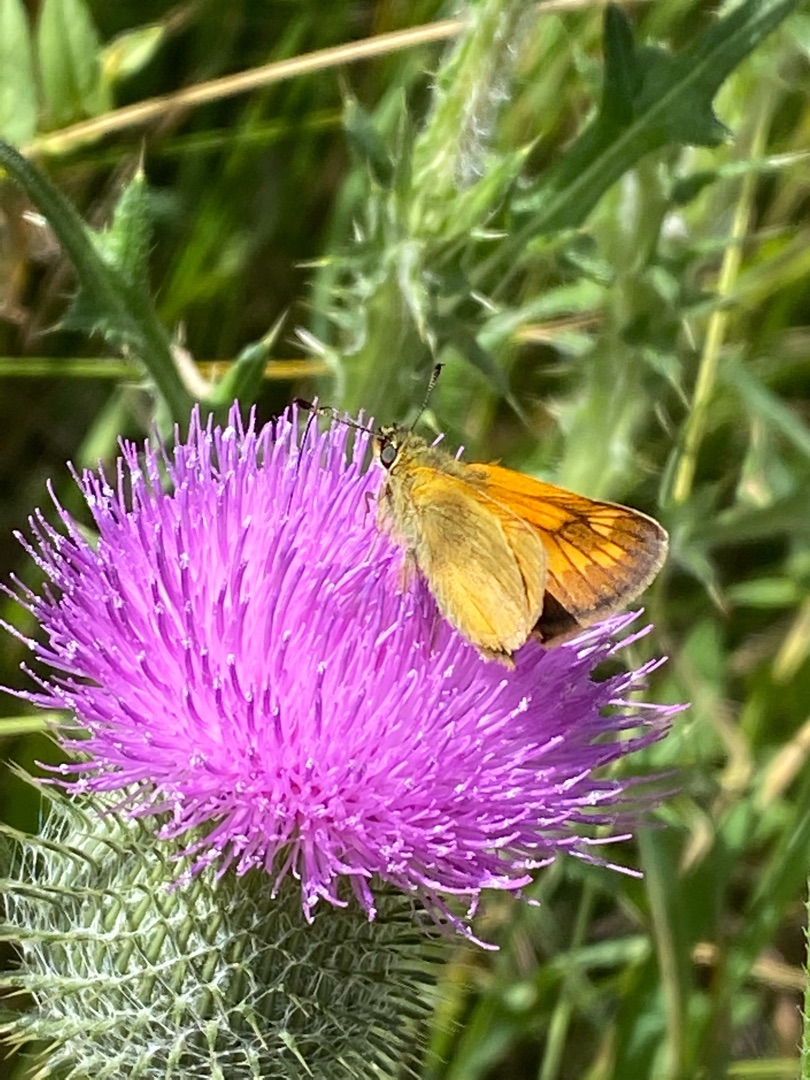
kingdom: Animalia
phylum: Arthropoda
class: Insecta
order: Lepidoptera
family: Hesperiidae
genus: Ochlodes
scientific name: Ochlodes venata
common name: Stor bredpande
